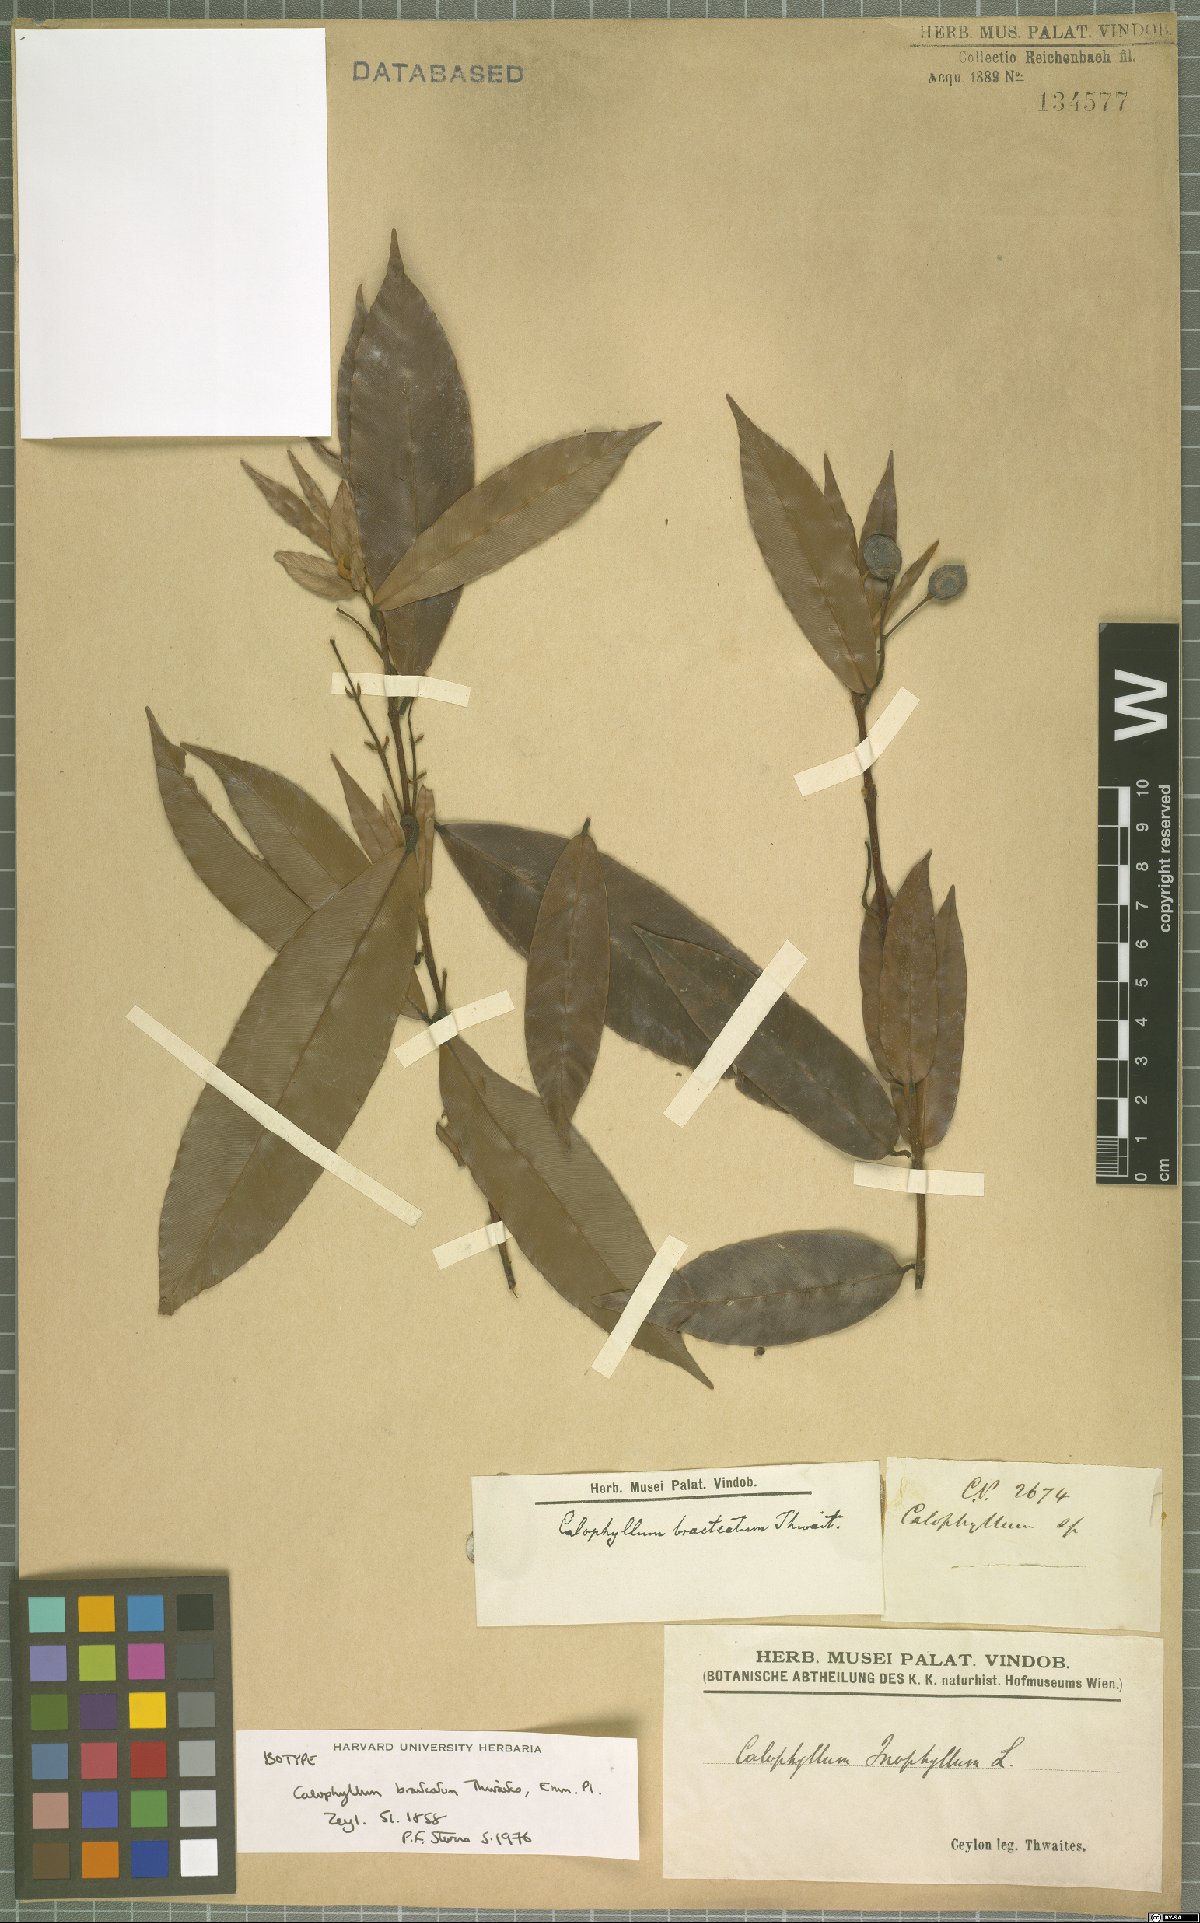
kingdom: Plantae
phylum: Tracheophyta
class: Magnoliopsida
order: Malpighiales
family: Calophyllaceae
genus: Calophyllum
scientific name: Calophyllum bracteatum
